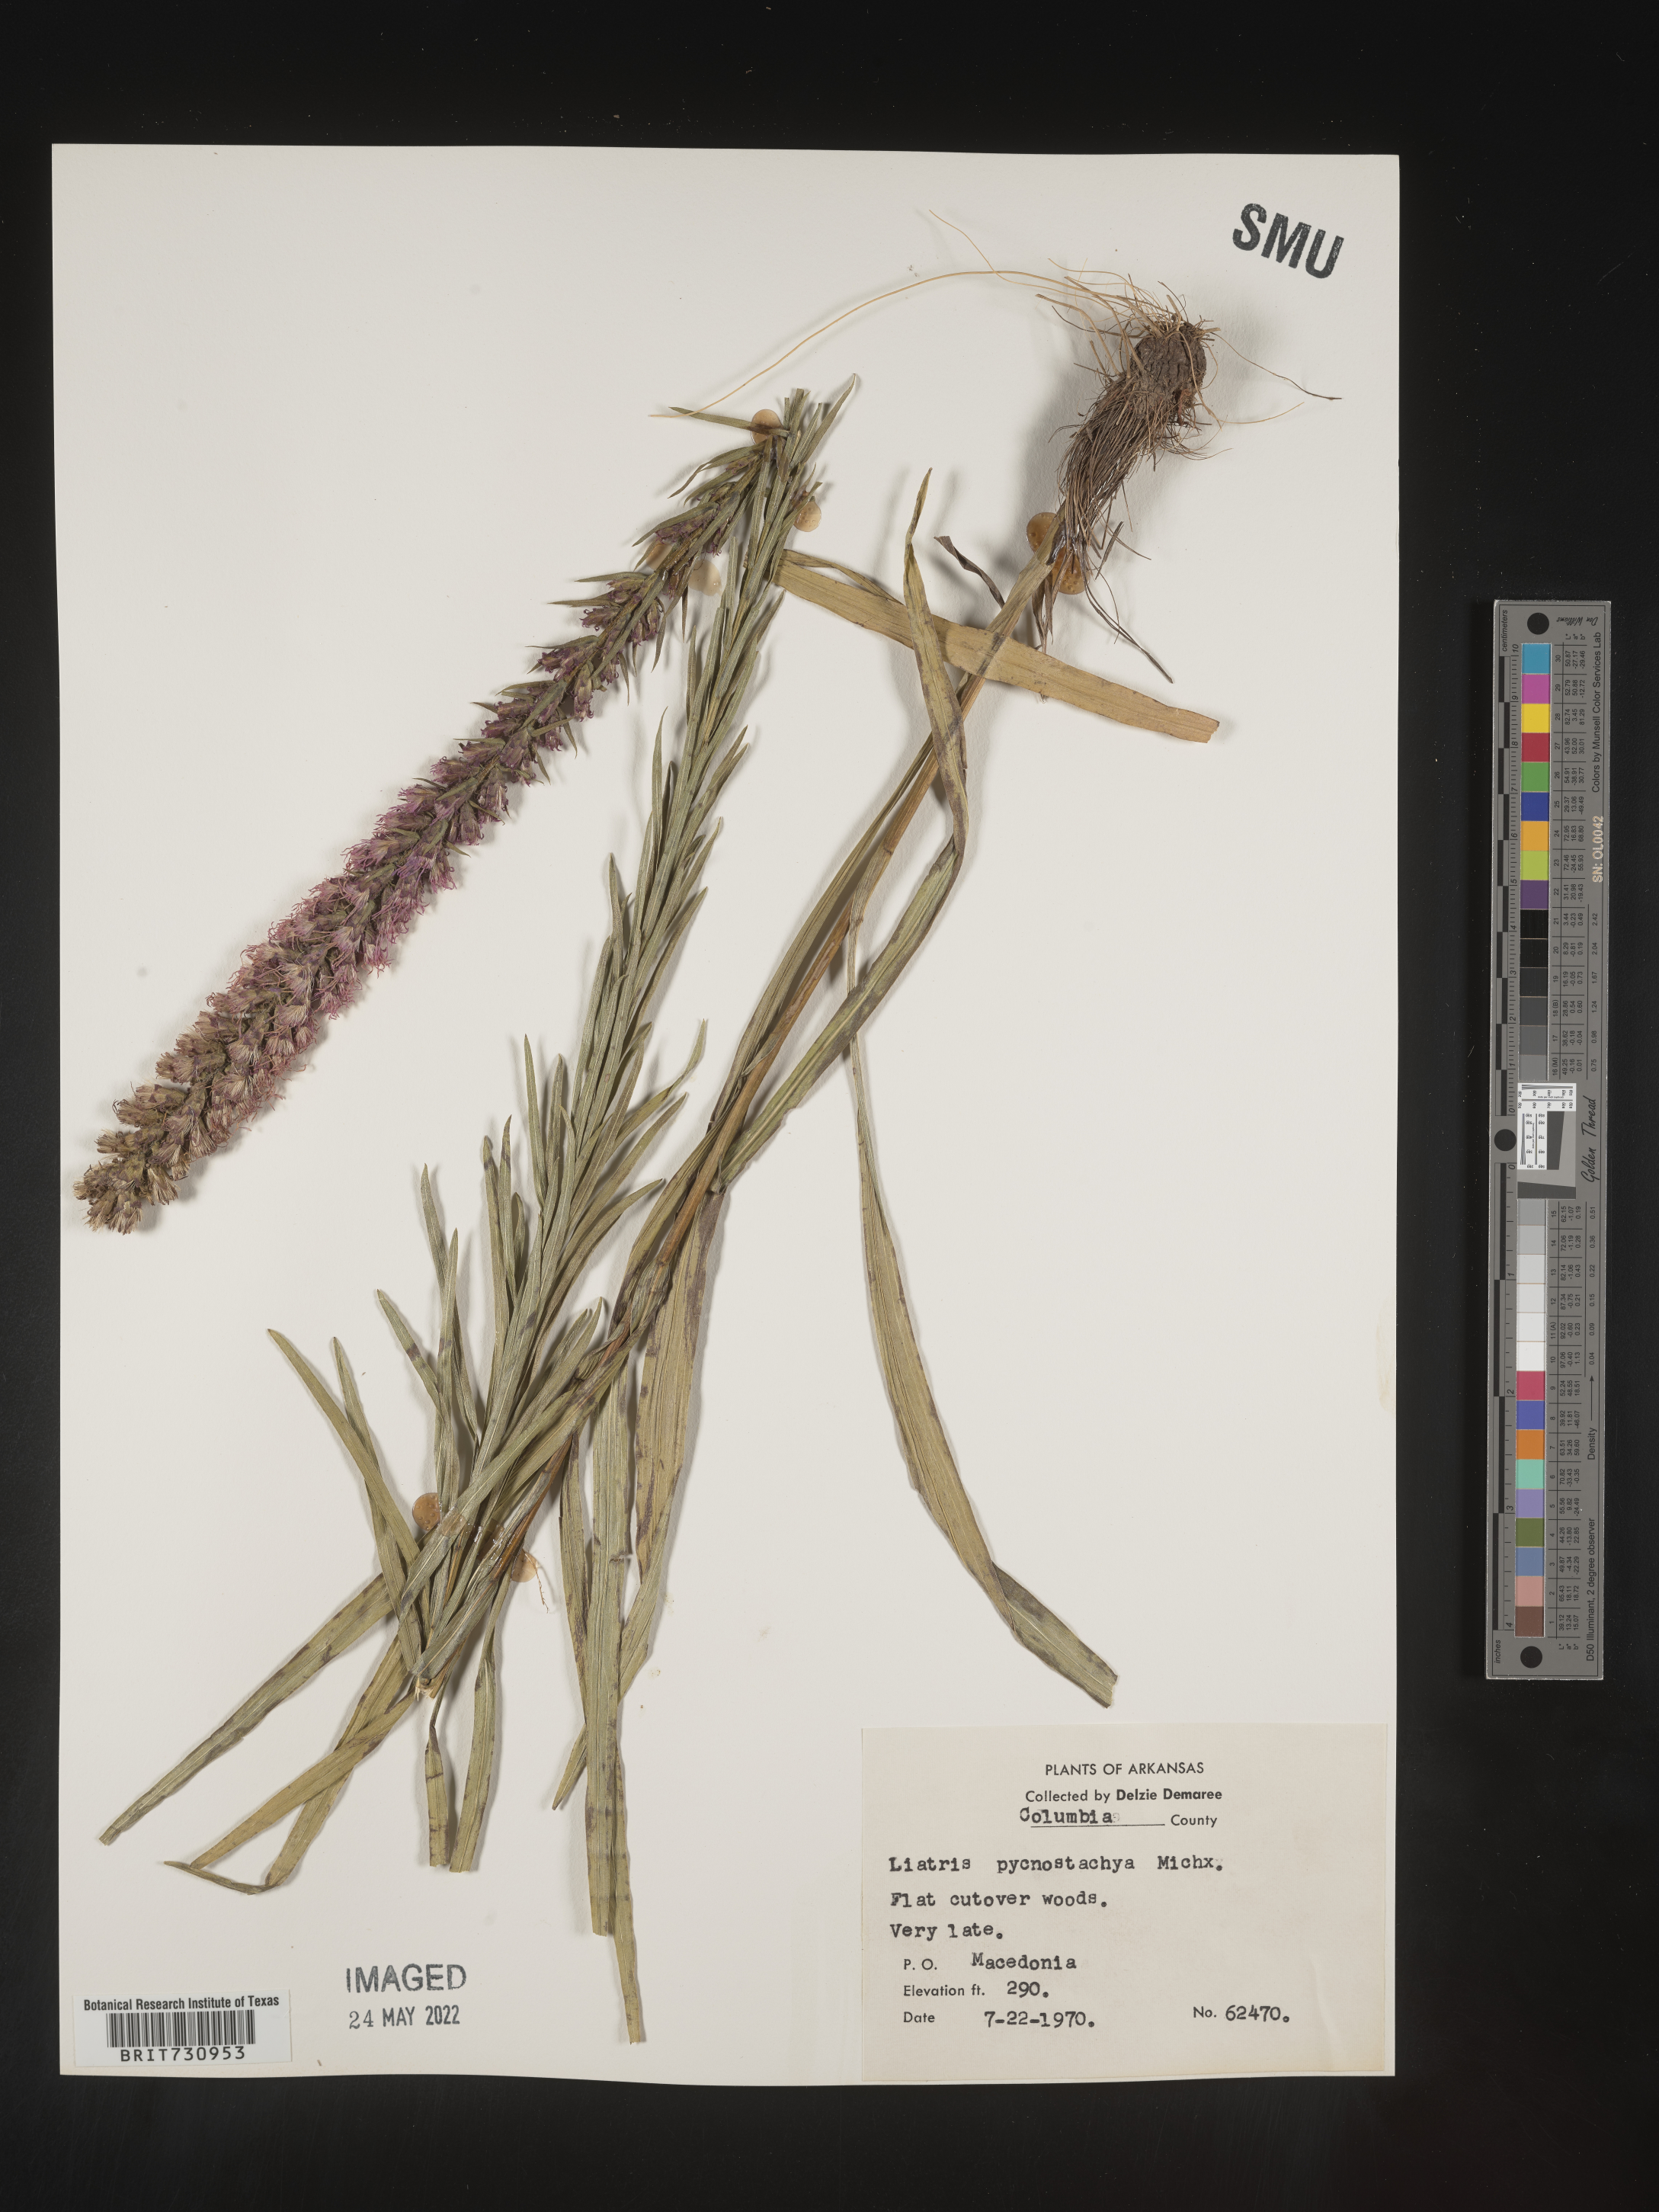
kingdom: Plantae
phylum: Tracheophyta
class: Magnoliopsida
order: Asterales
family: Asteraceae
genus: Liatris
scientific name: Liatris pycnostachya
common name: Cattail gayfeather
